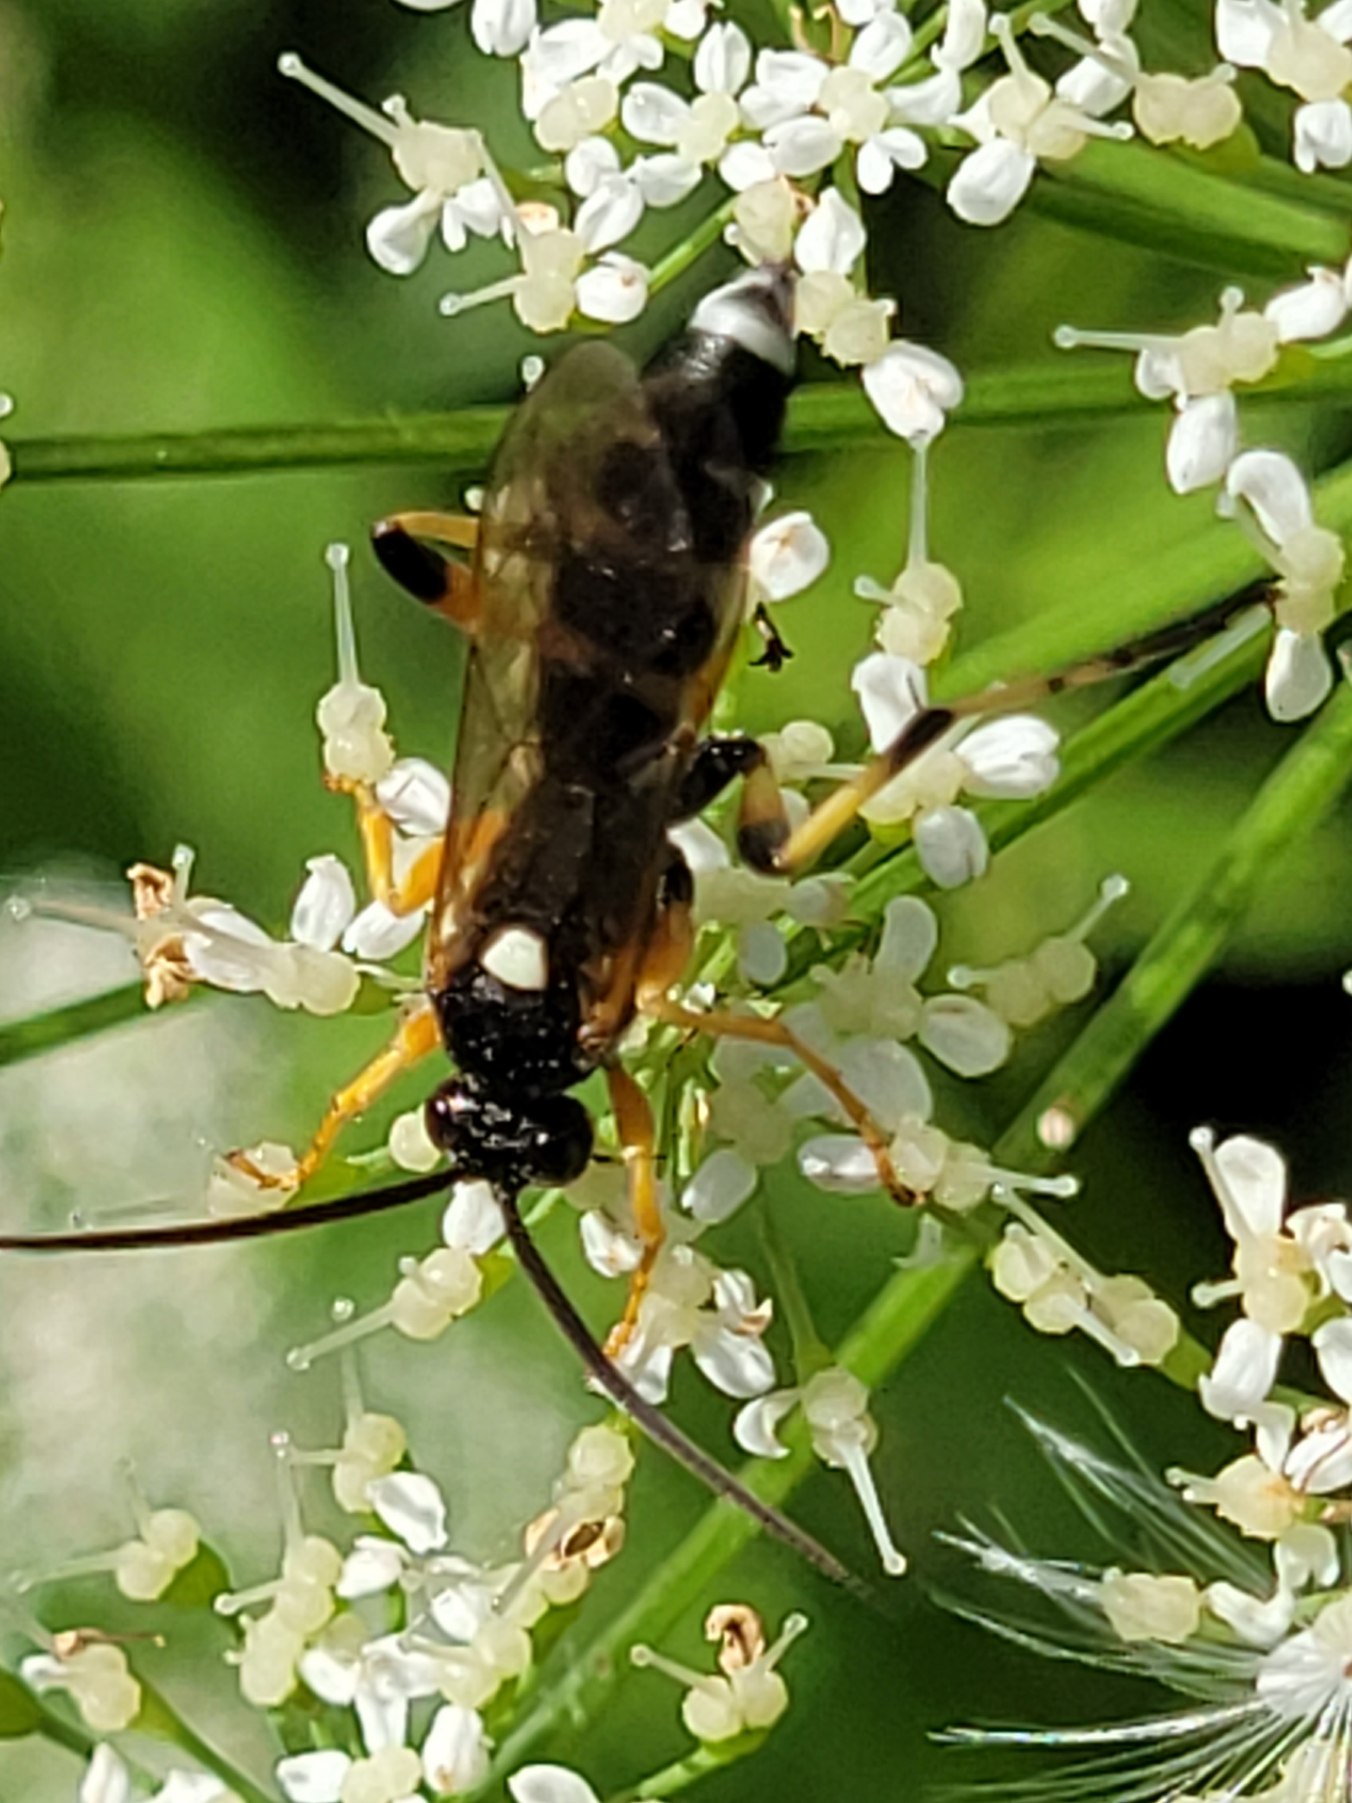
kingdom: Animalia
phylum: Arthropoda
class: Insecta
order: Hymenoptera
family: Ichneumonidae
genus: Ichneumon
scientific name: Ichneumon sarcitorius
